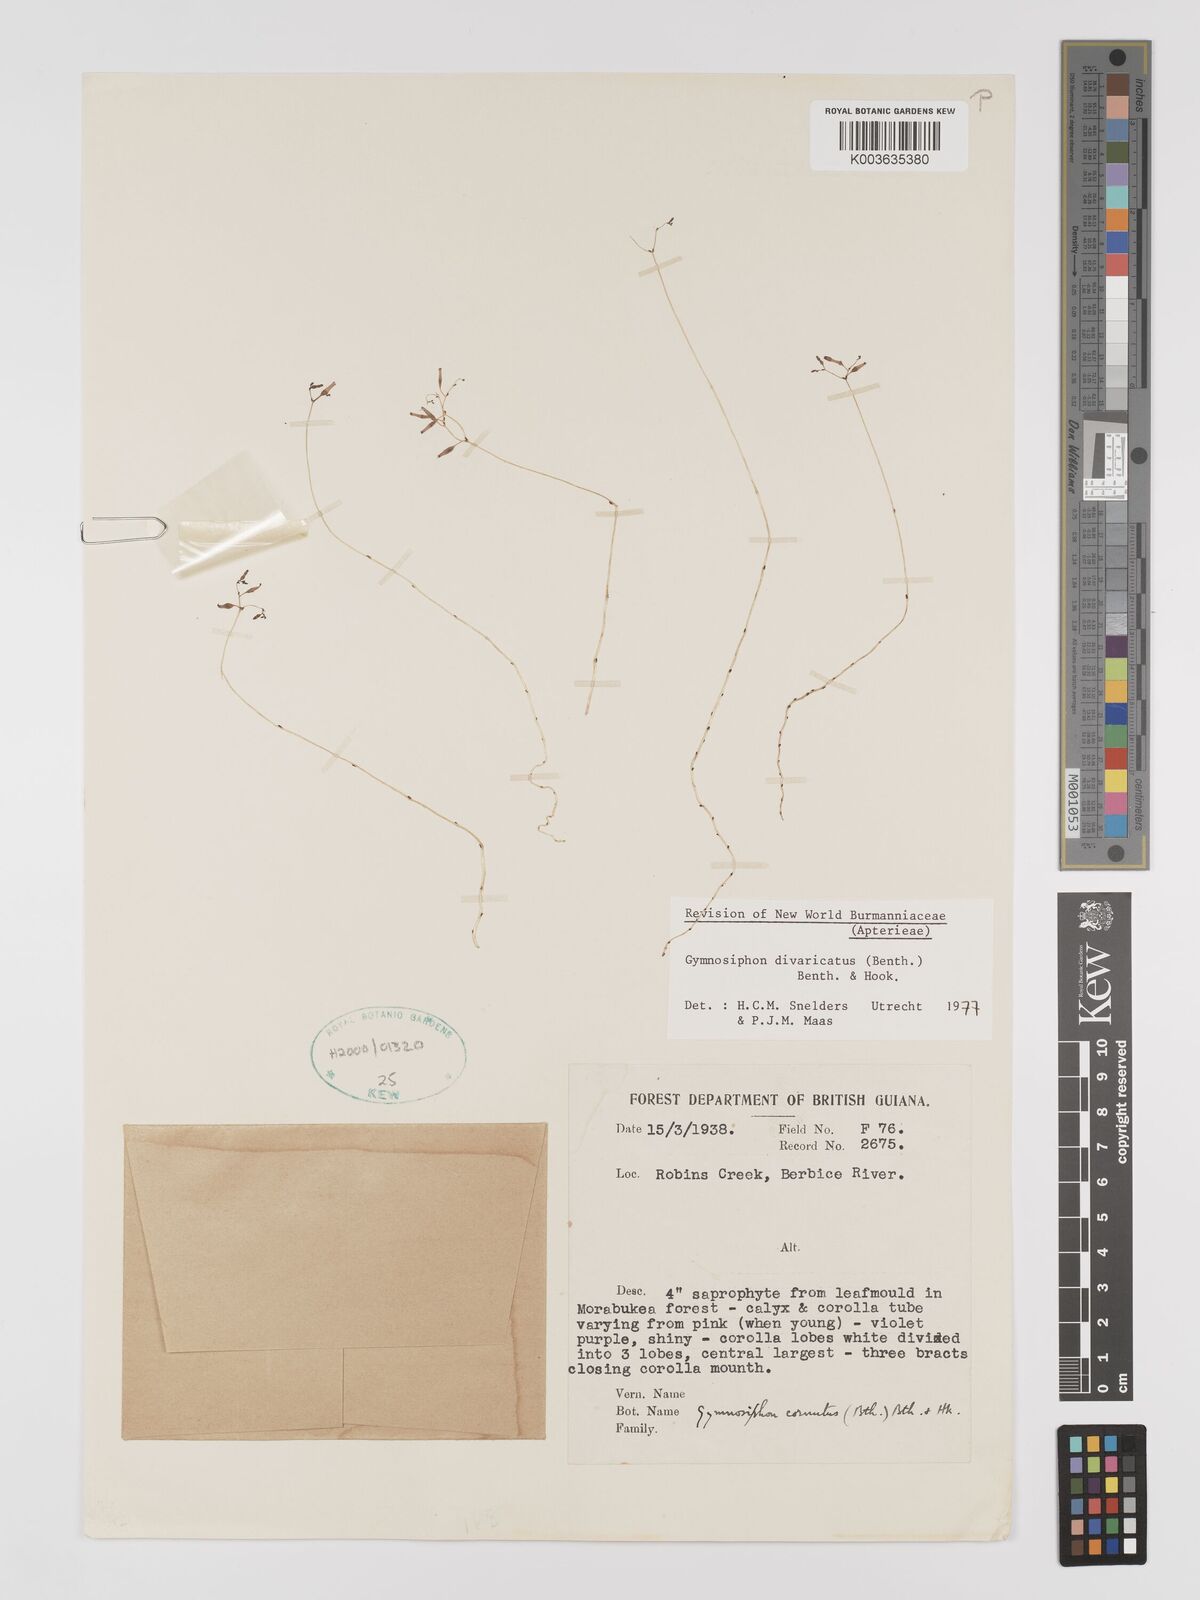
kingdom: Plantae
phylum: Tracheophyta
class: Liliopsida
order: Dioscoreales
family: Burmanniaceae
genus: Gymnosiphon
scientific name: Gymnosiphon divaricatus
